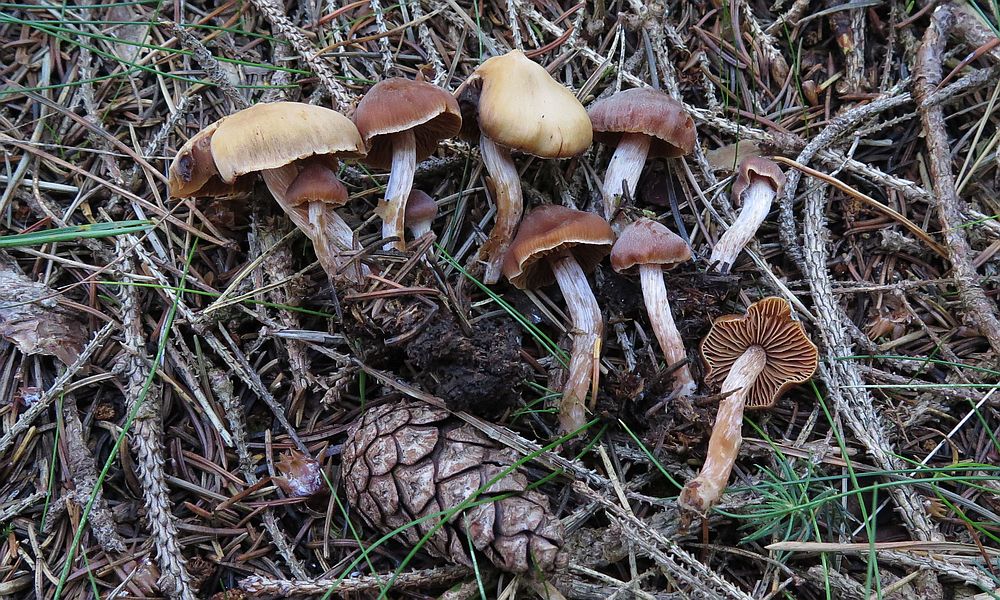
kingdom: Fungi
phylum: Basidiomycota
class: Agaricomycetes
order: Agaricales
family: Cortinariaceae
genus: Cortinarius
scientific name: Cortinarius
